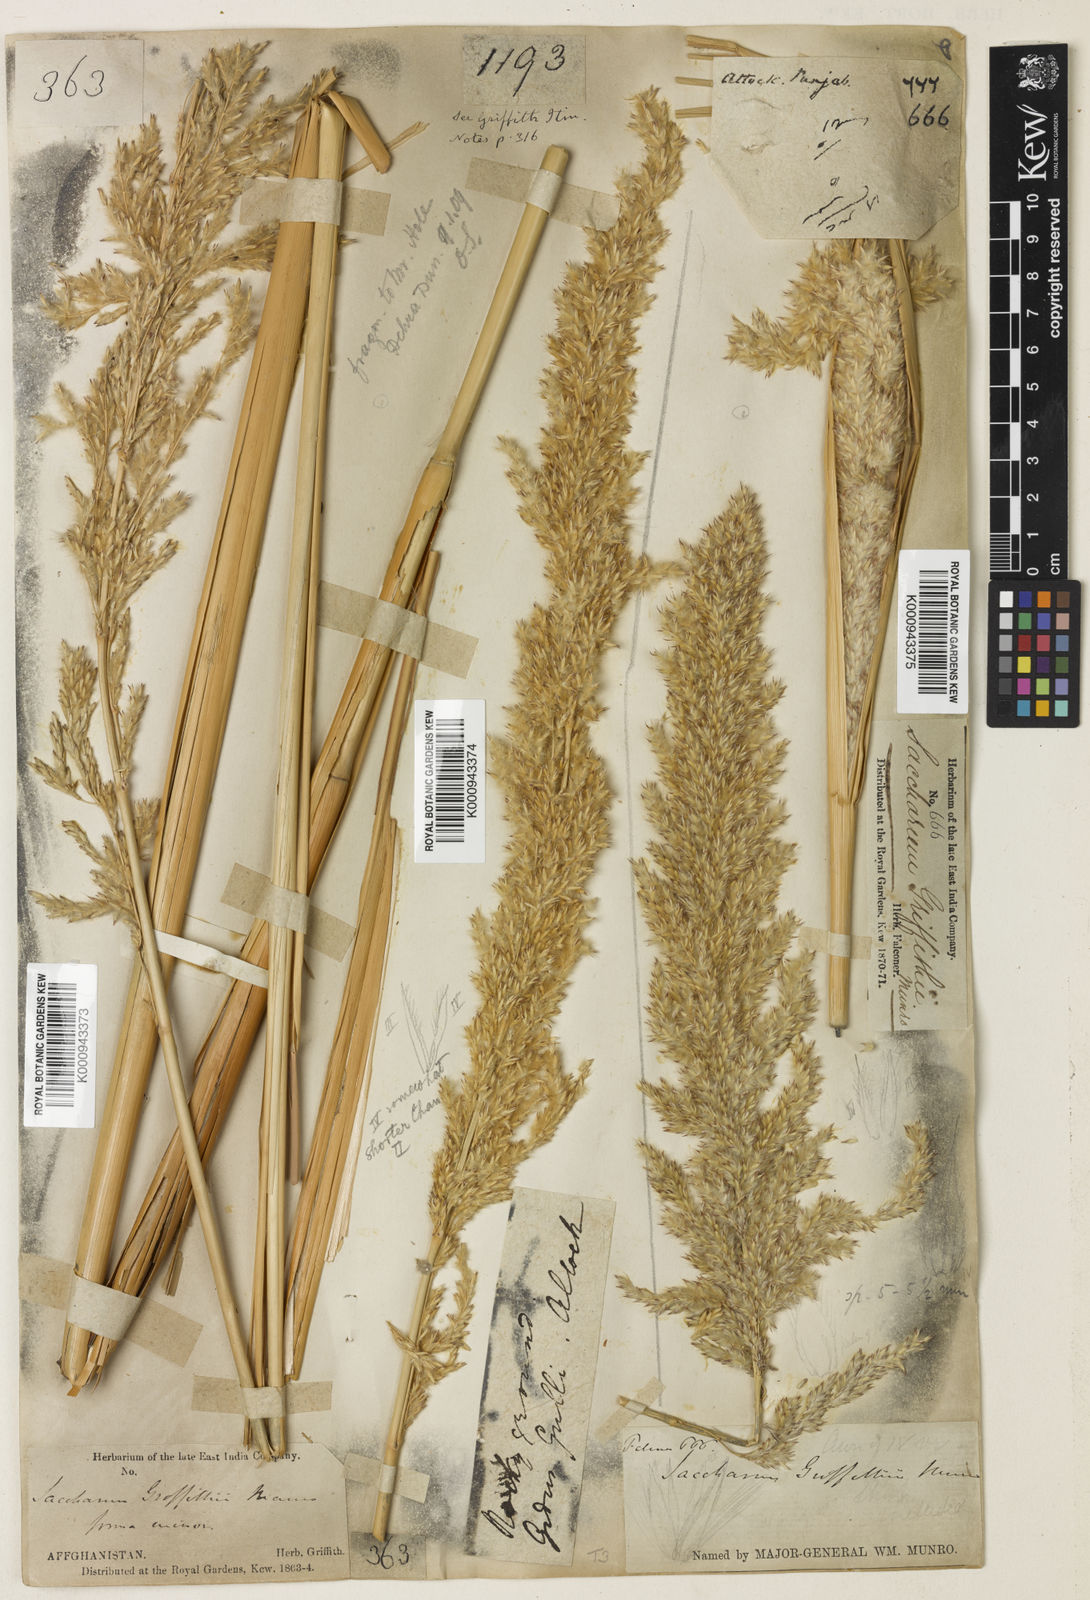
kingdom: Plantae
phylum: Tracheophyta
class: Liliopsida
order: Poales
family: Poaceae
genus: Saccharum
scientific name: Saccharum griffithii
